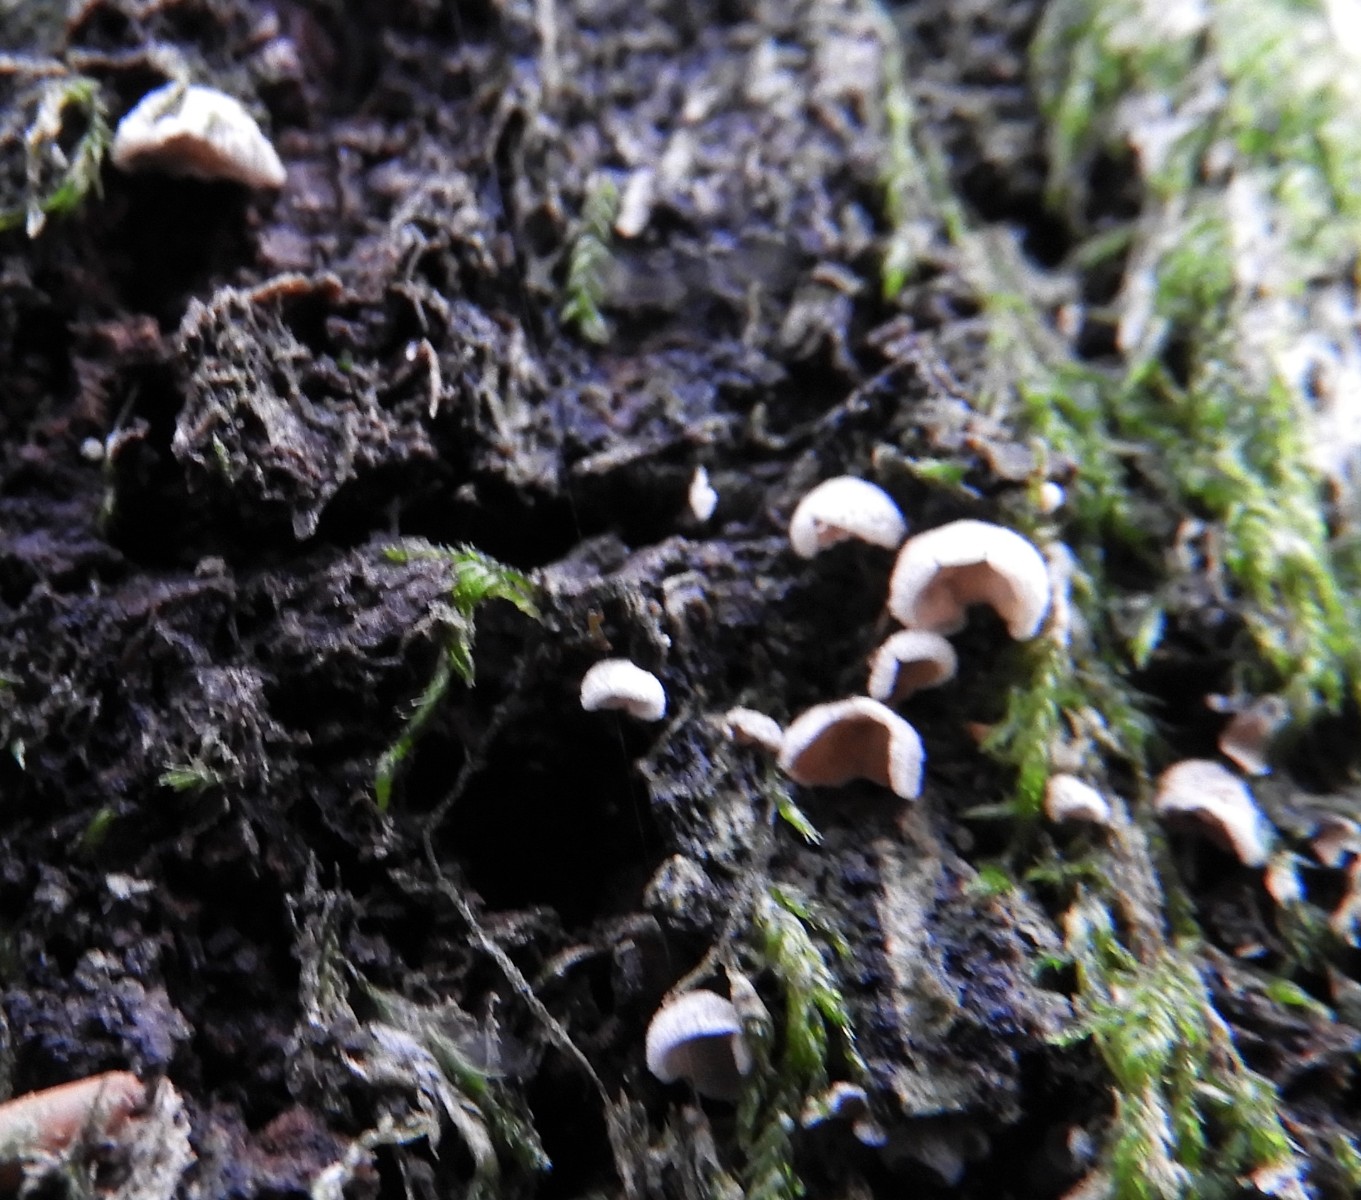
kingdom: Fungi
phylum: Basidiomycota
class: Agaricomycetes
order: Agaricales
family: Chromocyphellaceae
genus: Chromocyphella
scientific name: Chromocyphella muscicola
